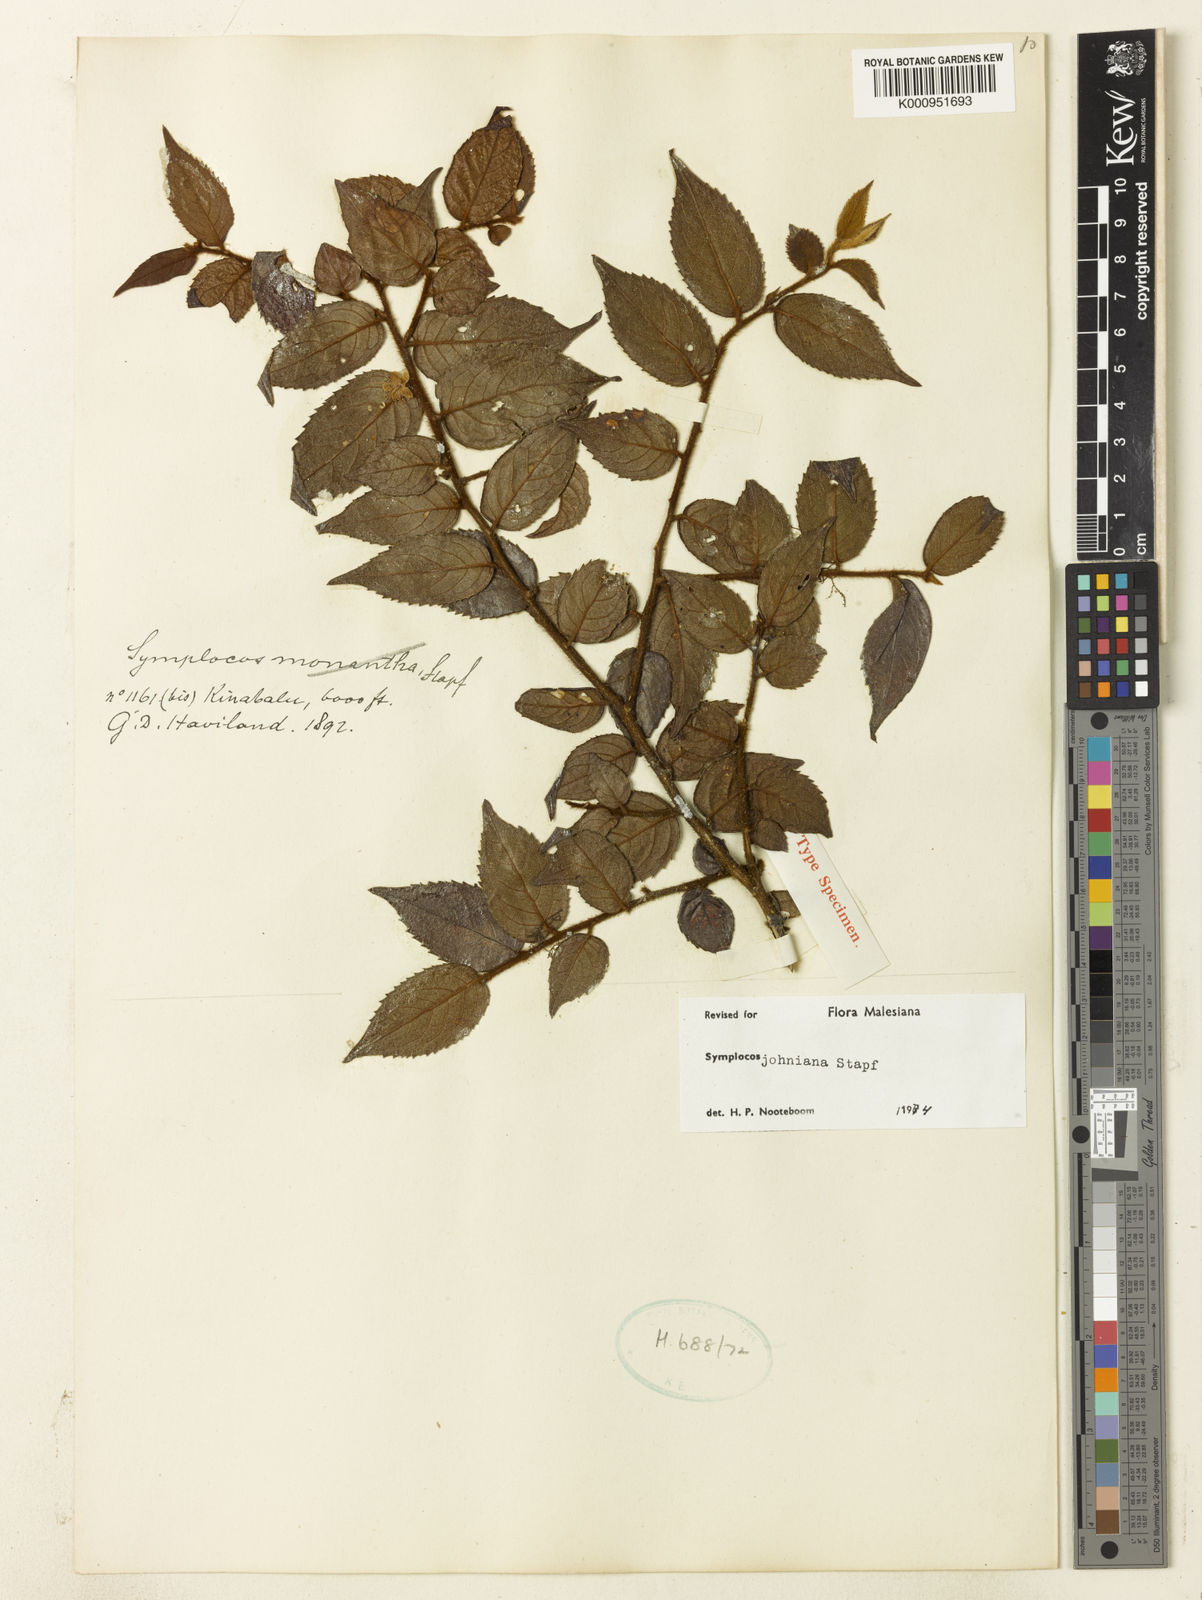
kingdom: Plantae
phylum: Tracheophyta
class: Magnoliopsida
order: Ericales
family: Symplocaceae
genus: Symplocos
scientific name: Symplocos johniana
